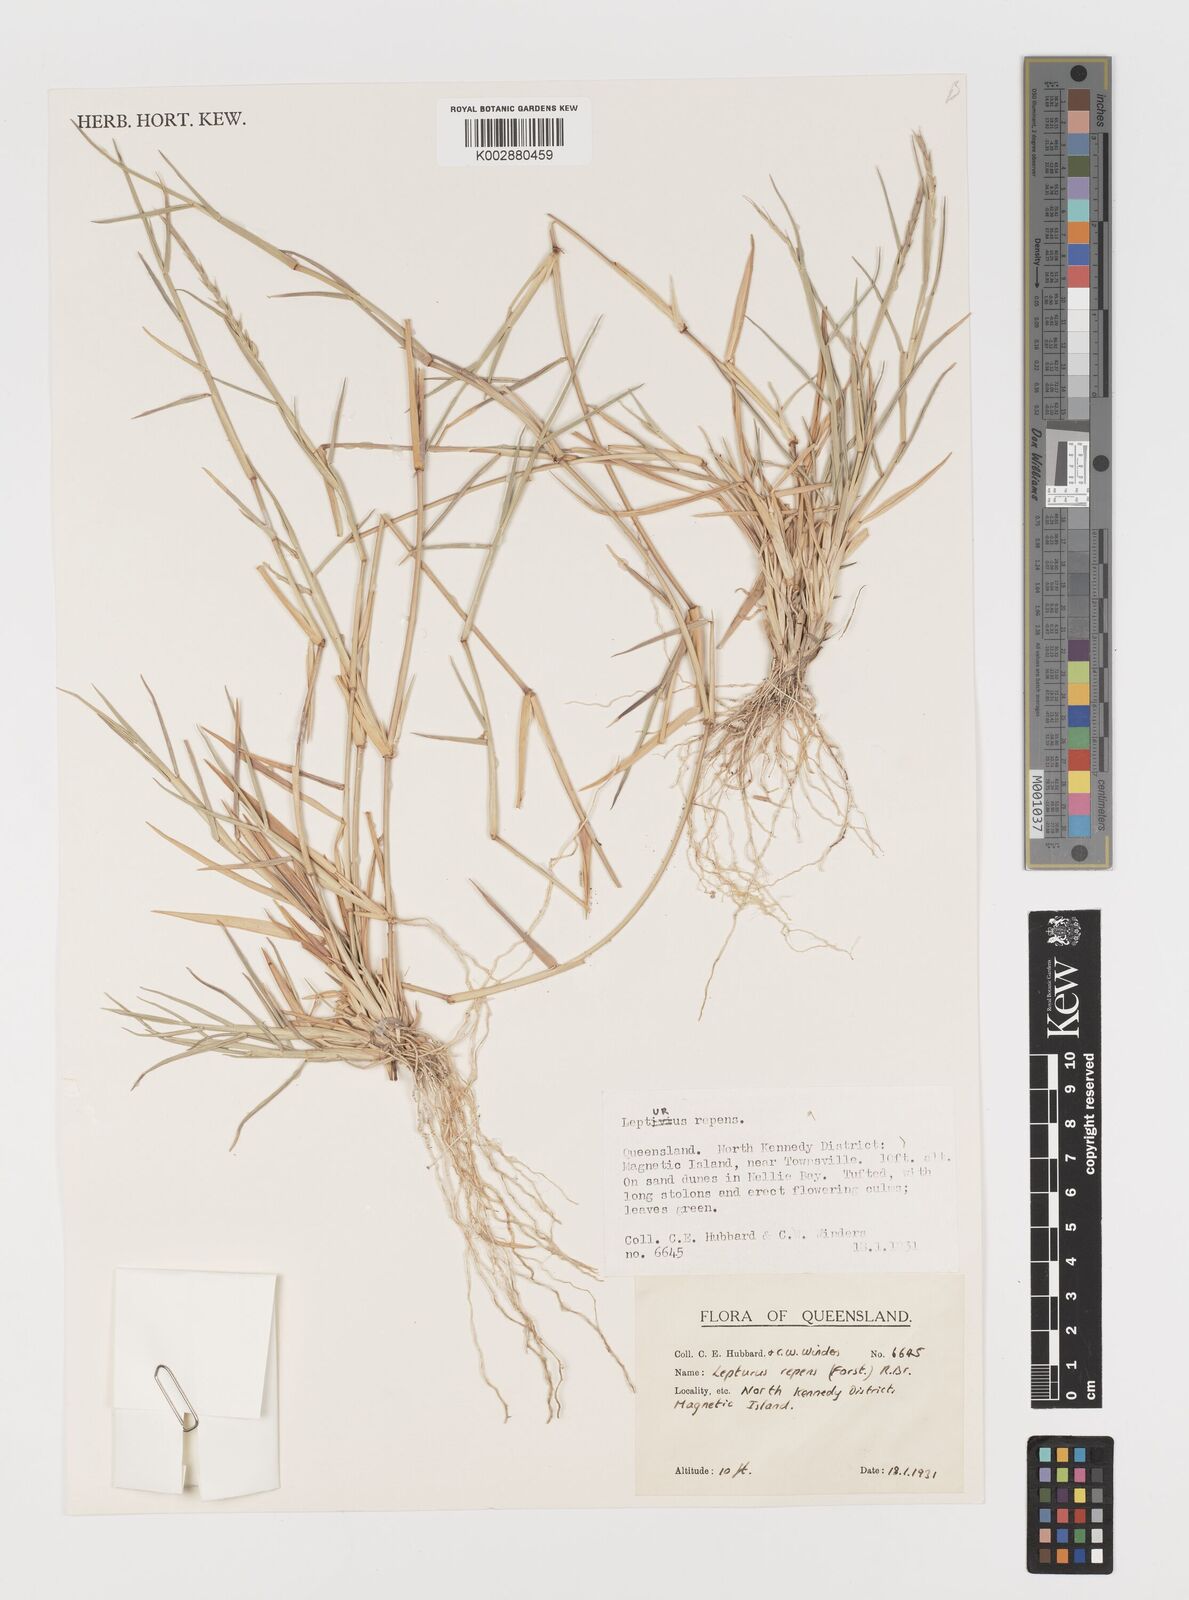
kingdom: Plantae
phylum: Tracheophyta
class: Liliopsida
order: Poales
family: Poaceae
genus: Lepturus
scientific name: Lepturus repens
